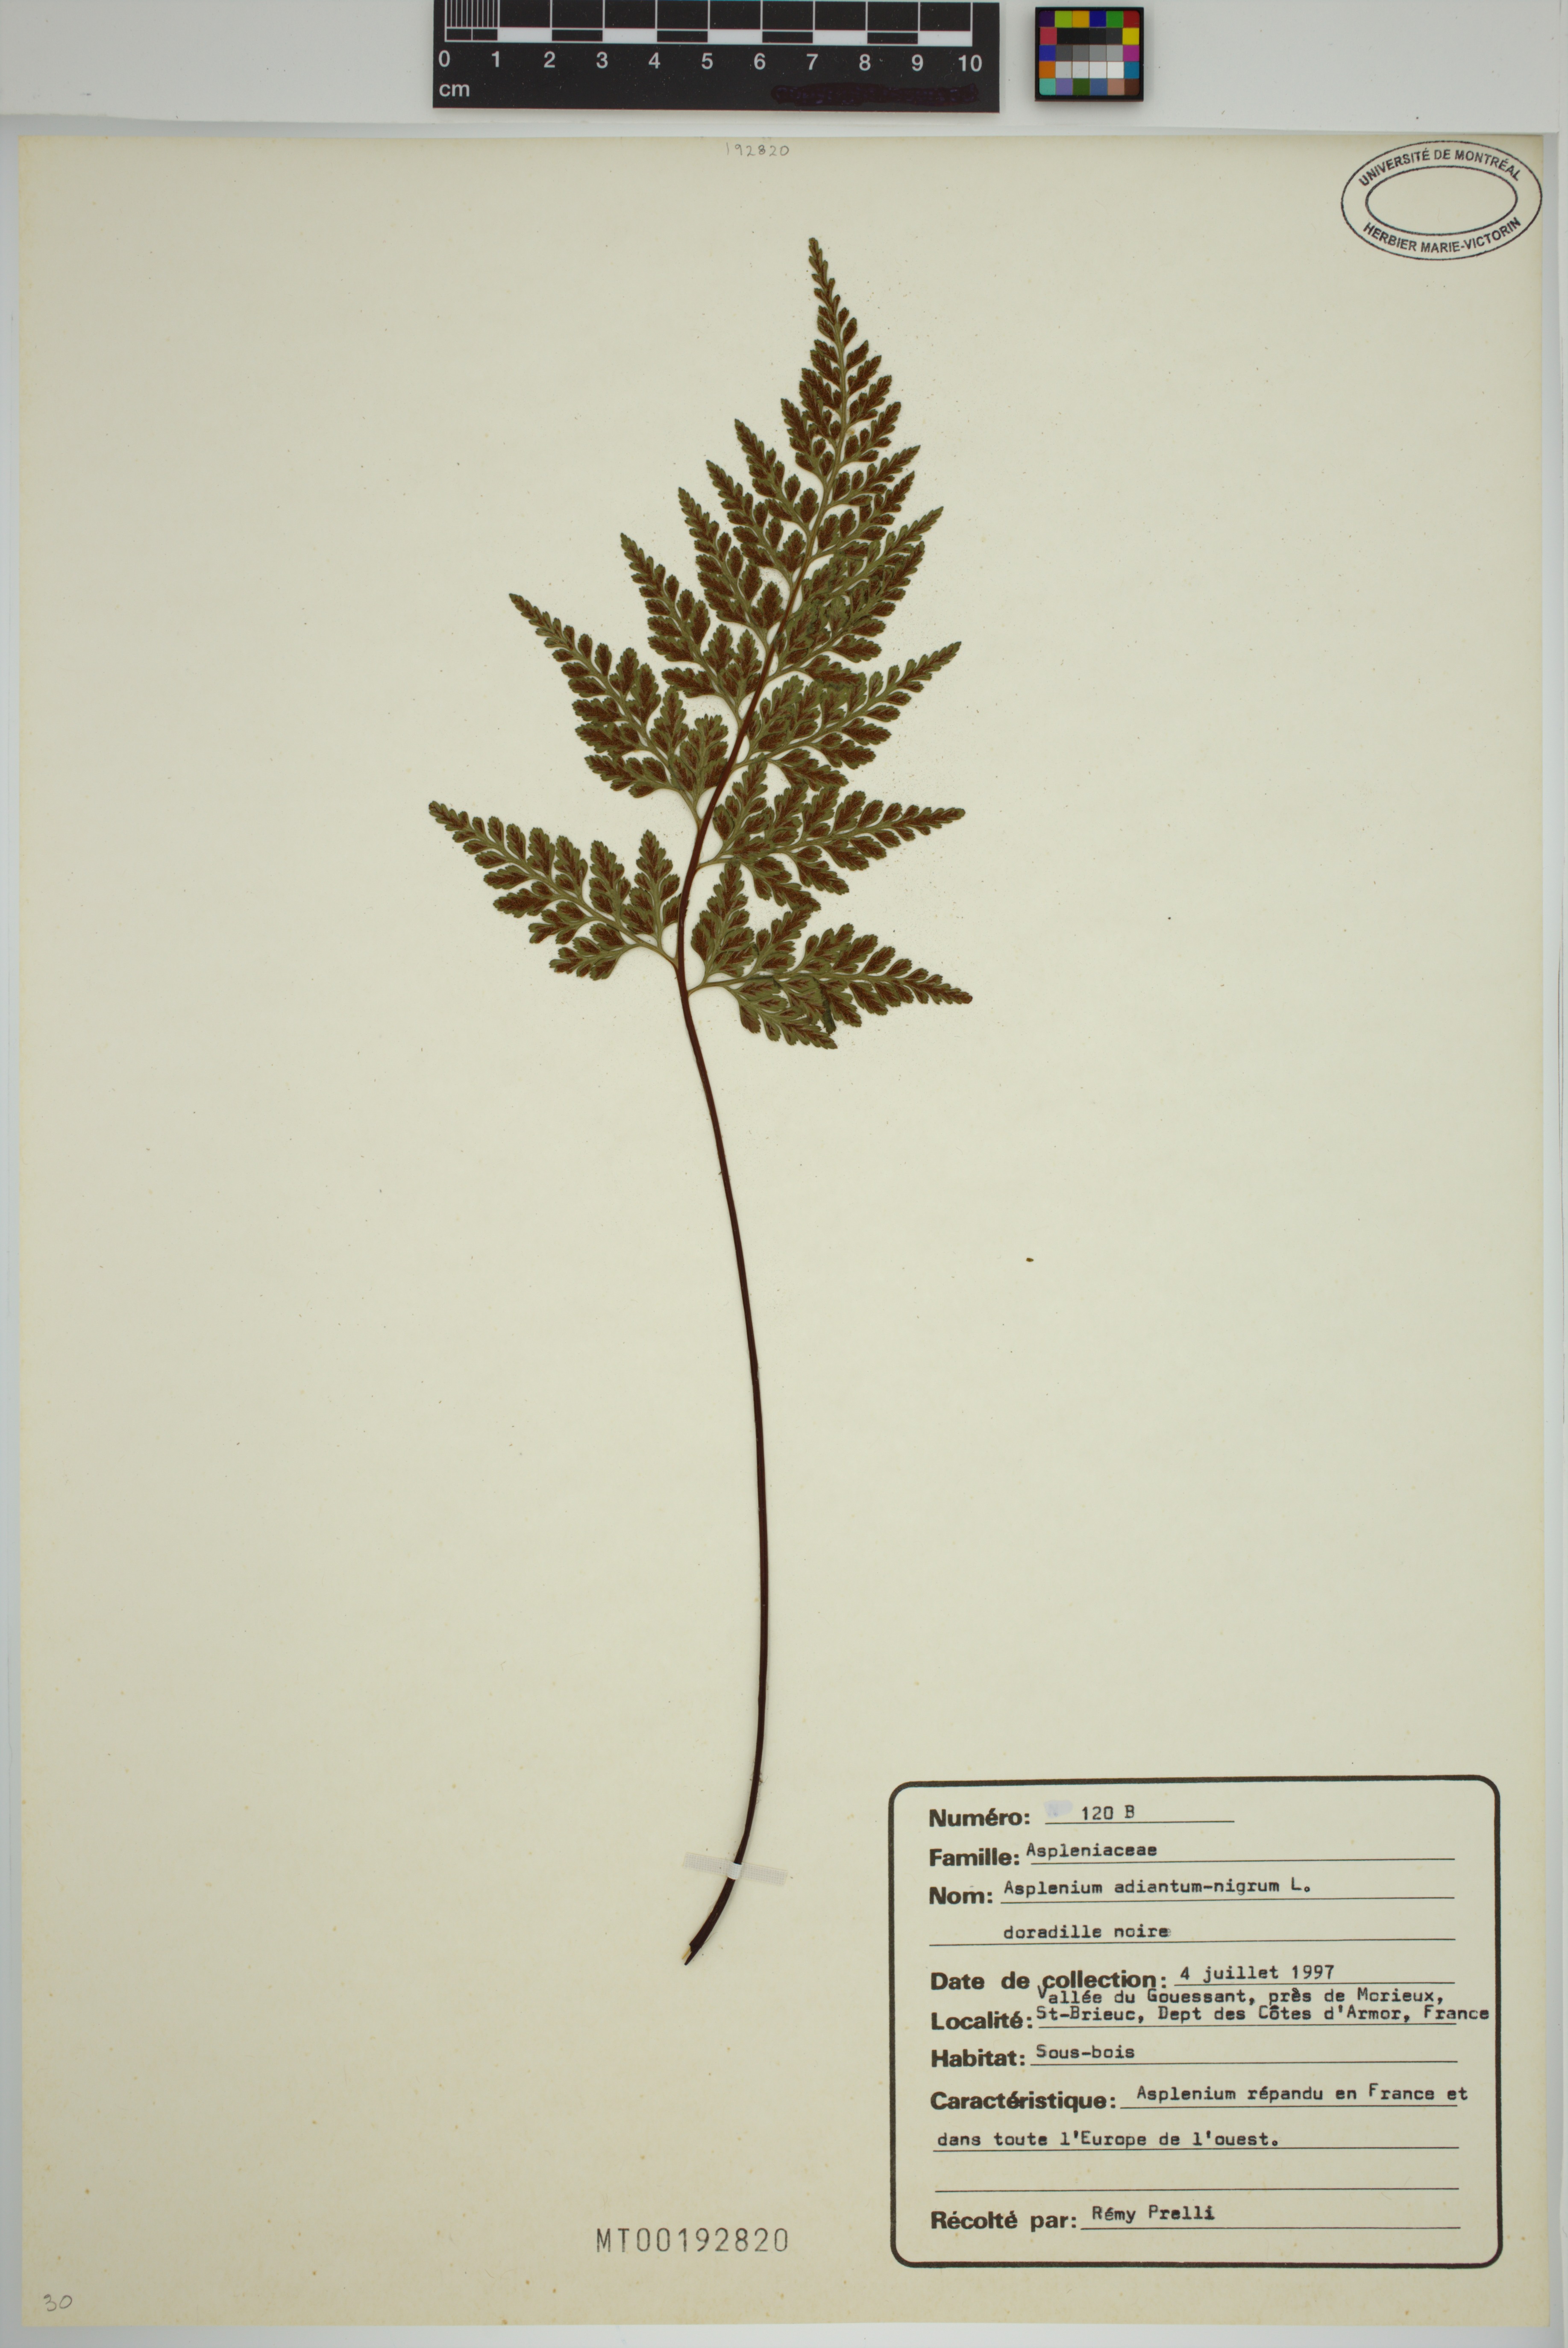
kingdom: Plantae
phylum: Tracheophyta
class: Polypodiopsida
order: Polypodiales
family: Aspleniaceae
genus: Asplenium
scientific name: Asplenium adiantum-nigrum
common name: Black spleenwort
